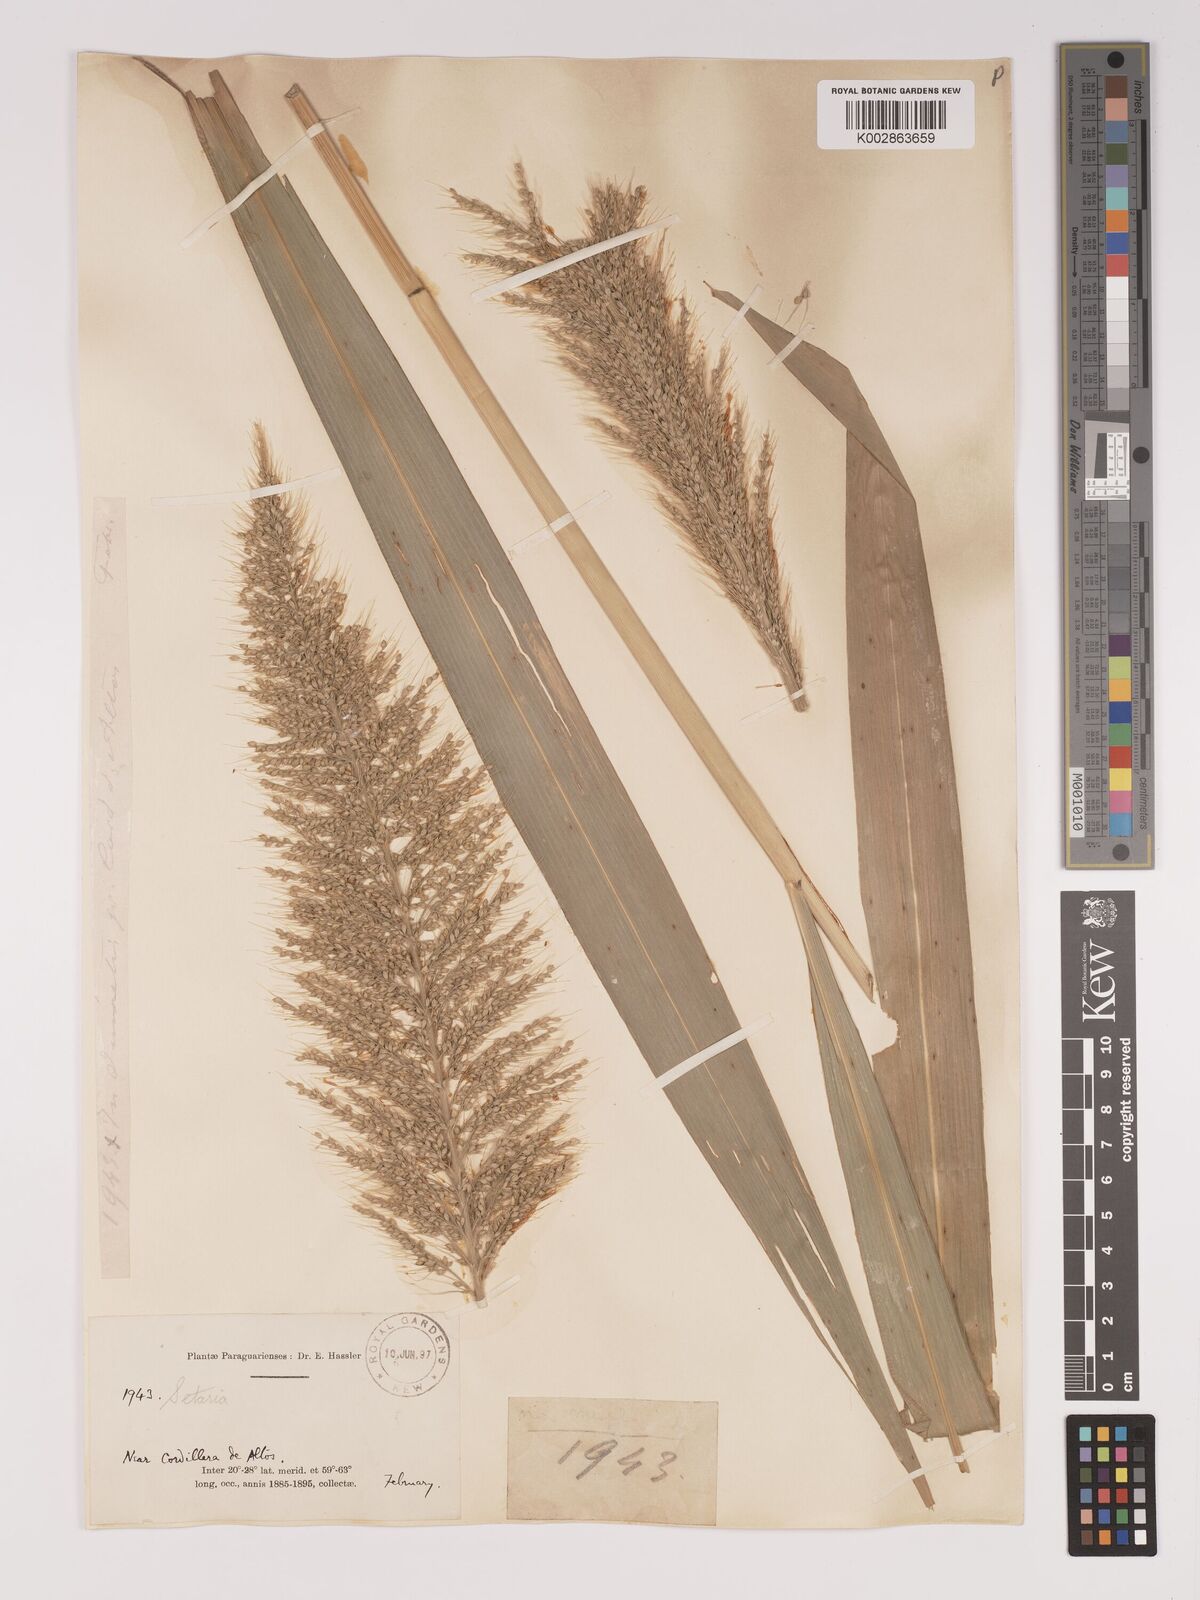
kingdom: Plantae
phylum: Tracheophyta
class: Liliopsida
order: Poales
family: Poaceae
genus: Setaria
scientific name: Setaria vulpiseta
